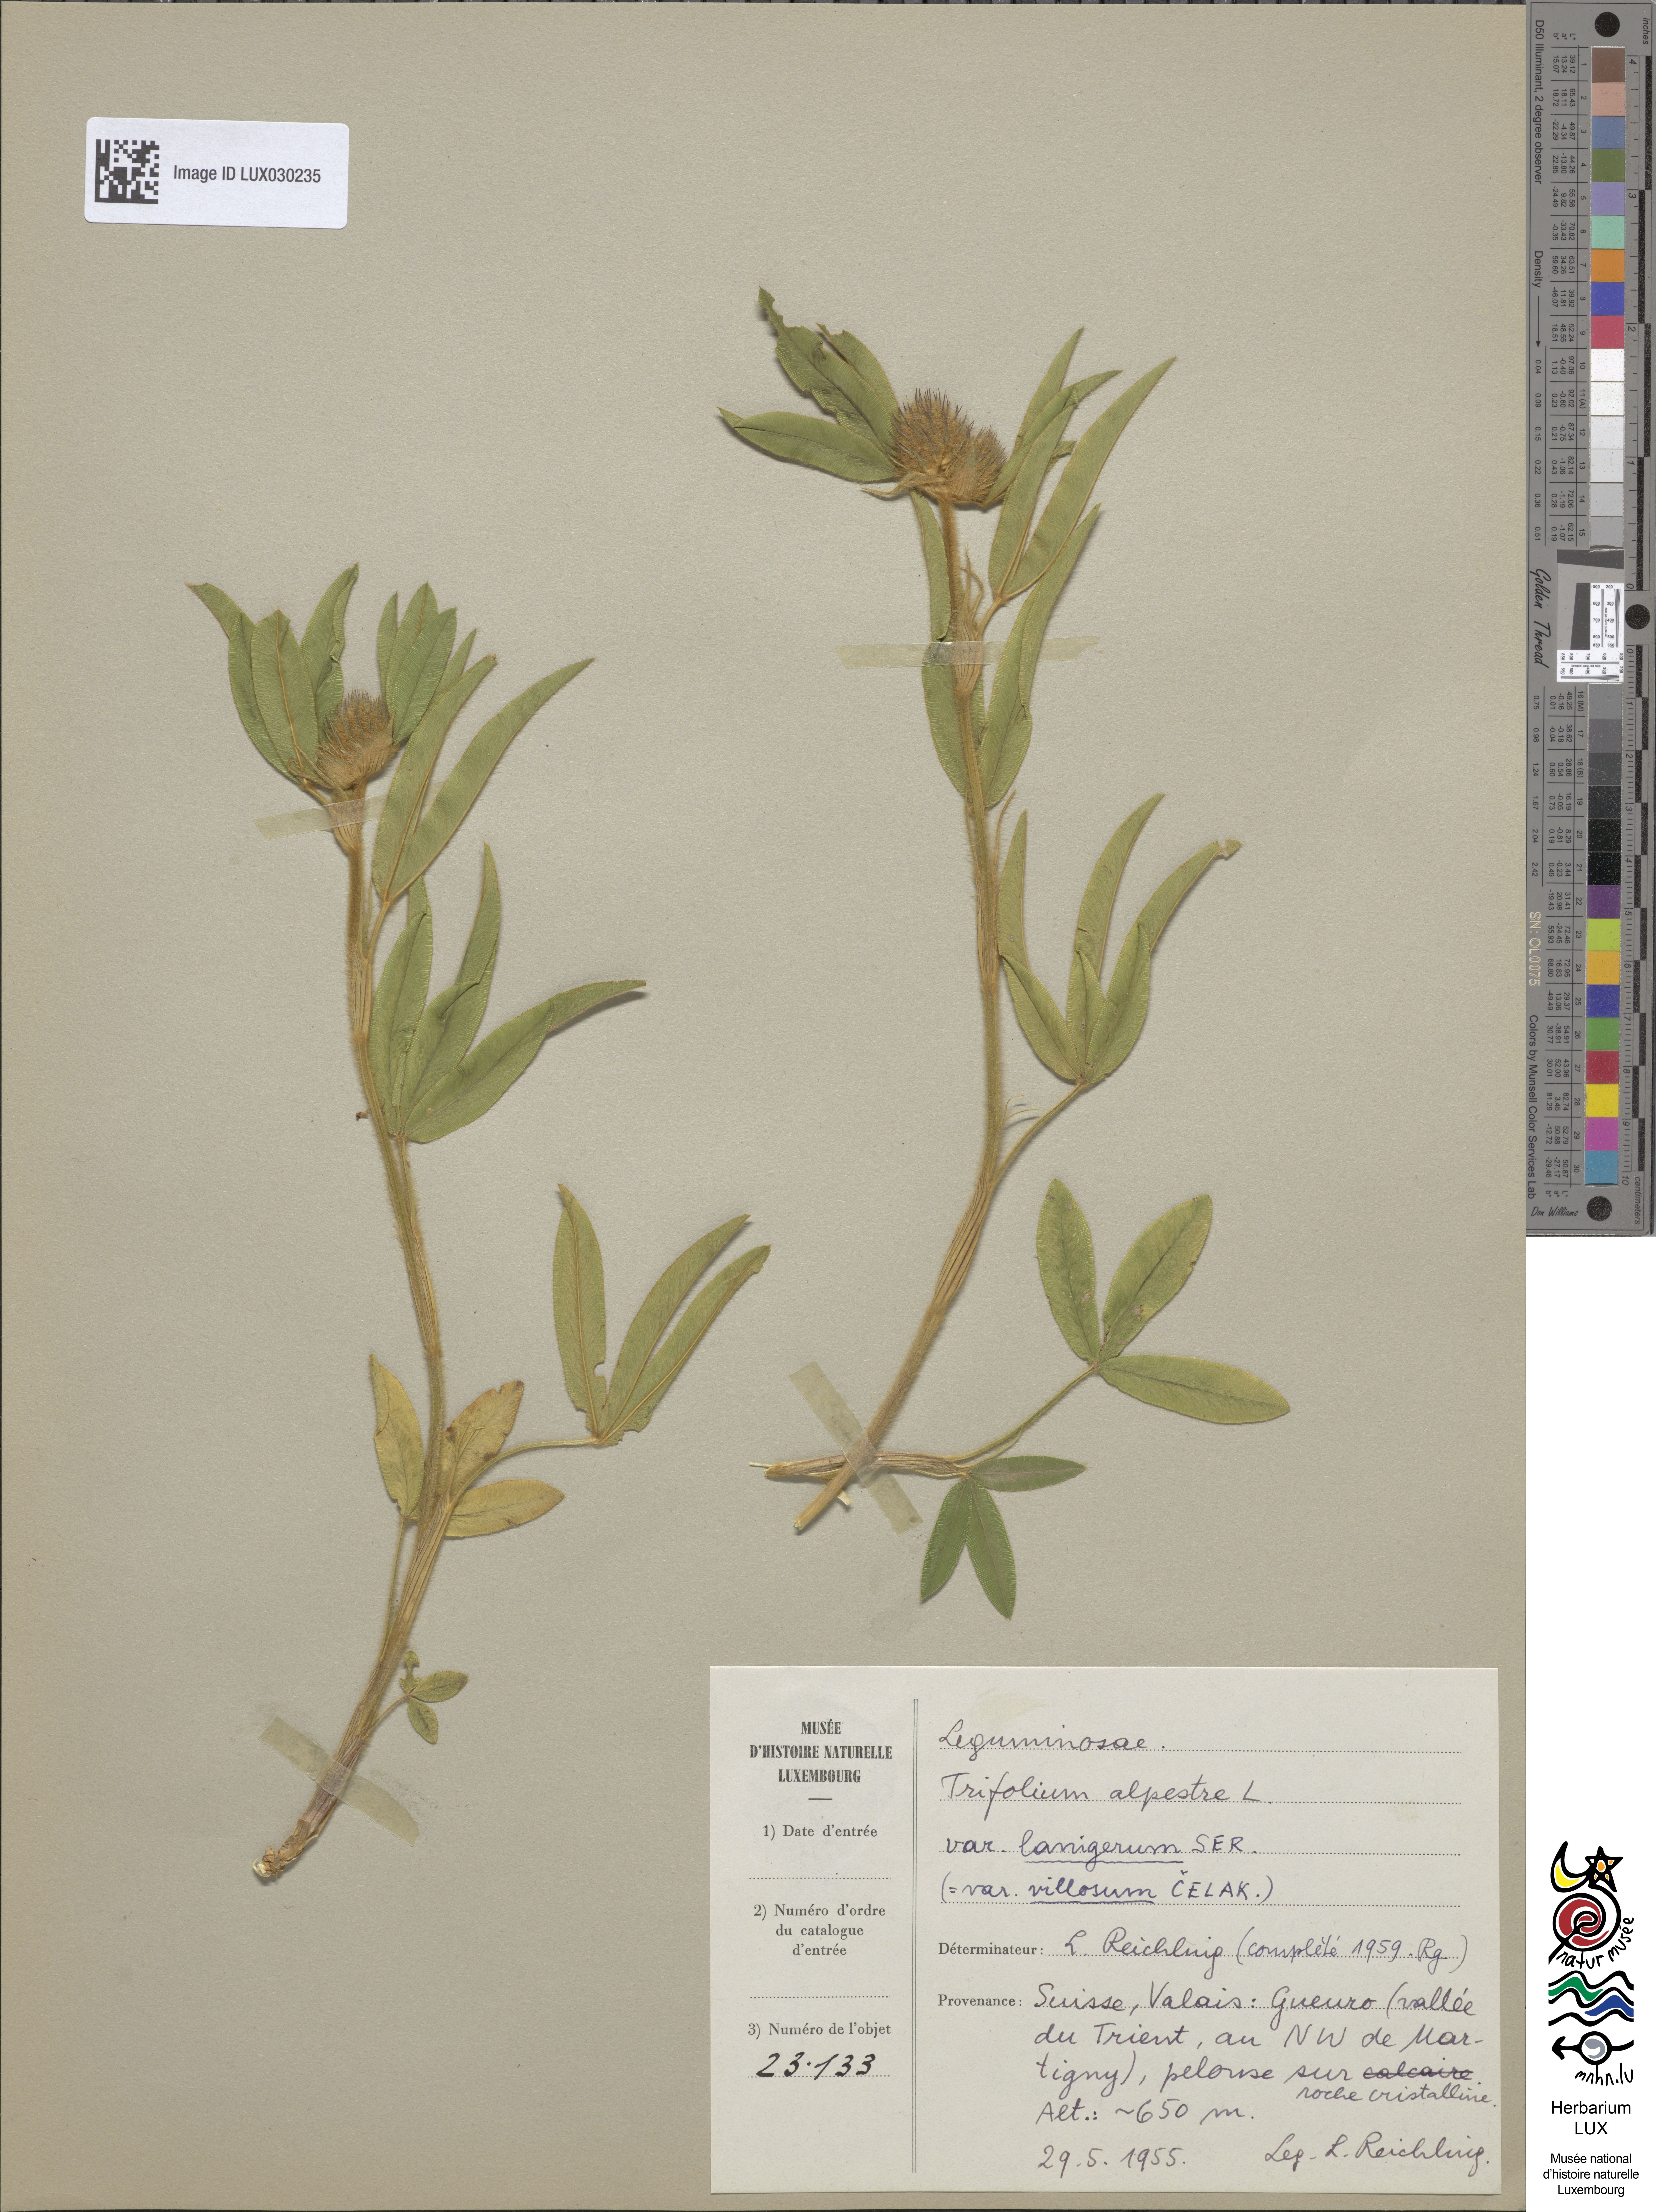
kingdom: Plantae
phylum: Tracheophyta
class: Magnoliopsida
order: Fabales
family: Fabaceae
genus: Trifolium
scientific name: Trifolium alpestre
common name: Owl-head clover
